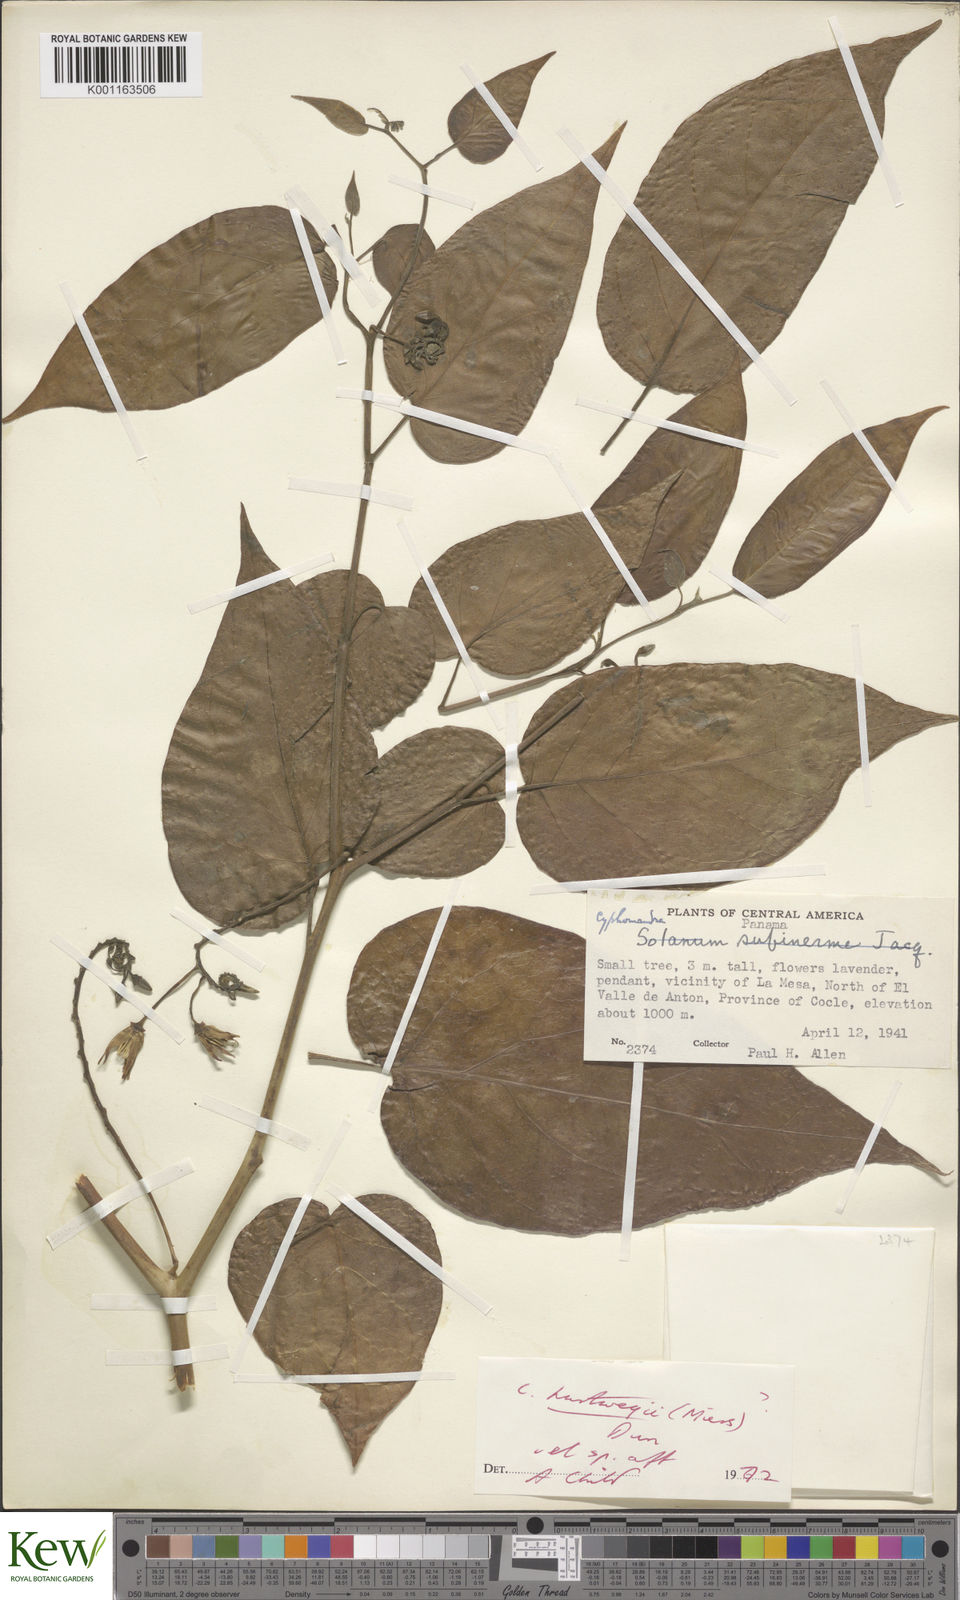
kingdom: Plantae
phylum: Tracheophyta
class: Magnoliopsida
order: Solanales
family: Solanaceae
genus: Solanum
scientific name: Solanum splendens
